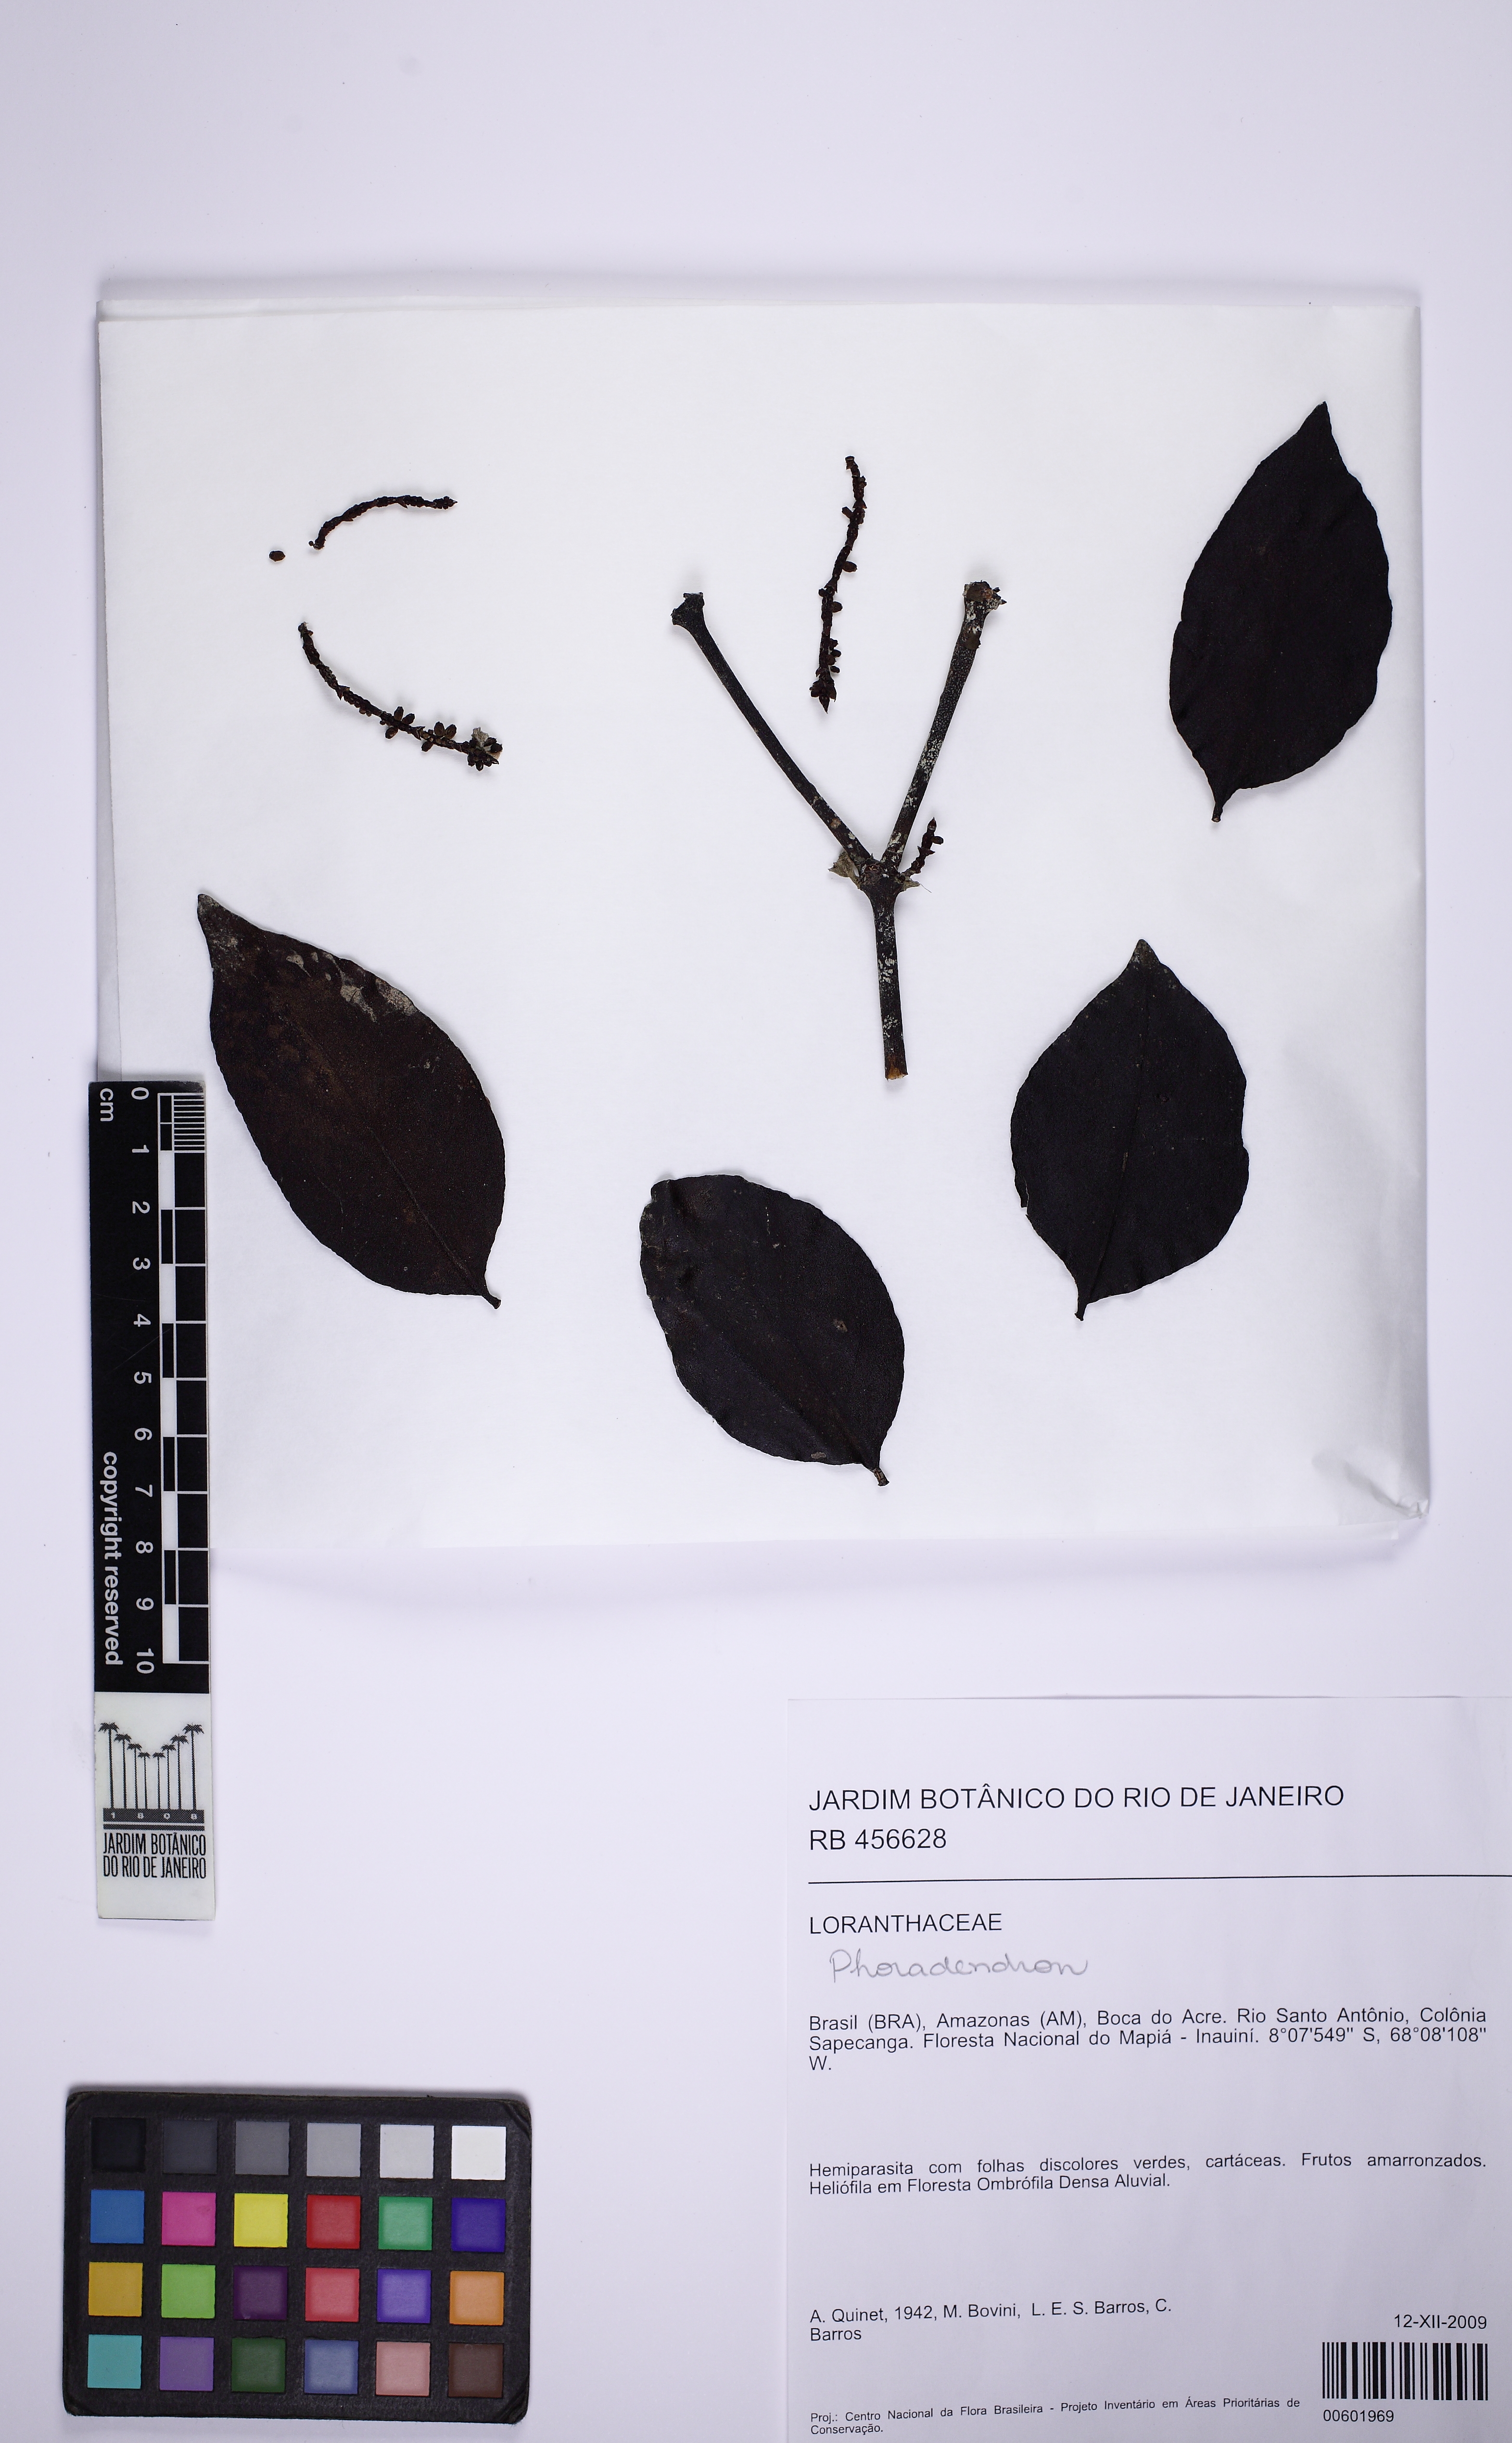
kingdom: Plantae
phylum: Tracheophyta
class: Magnoliopsida
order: Santalales
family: Viscaceae
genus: Phoradendron
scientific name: Phoradendron piperoides
